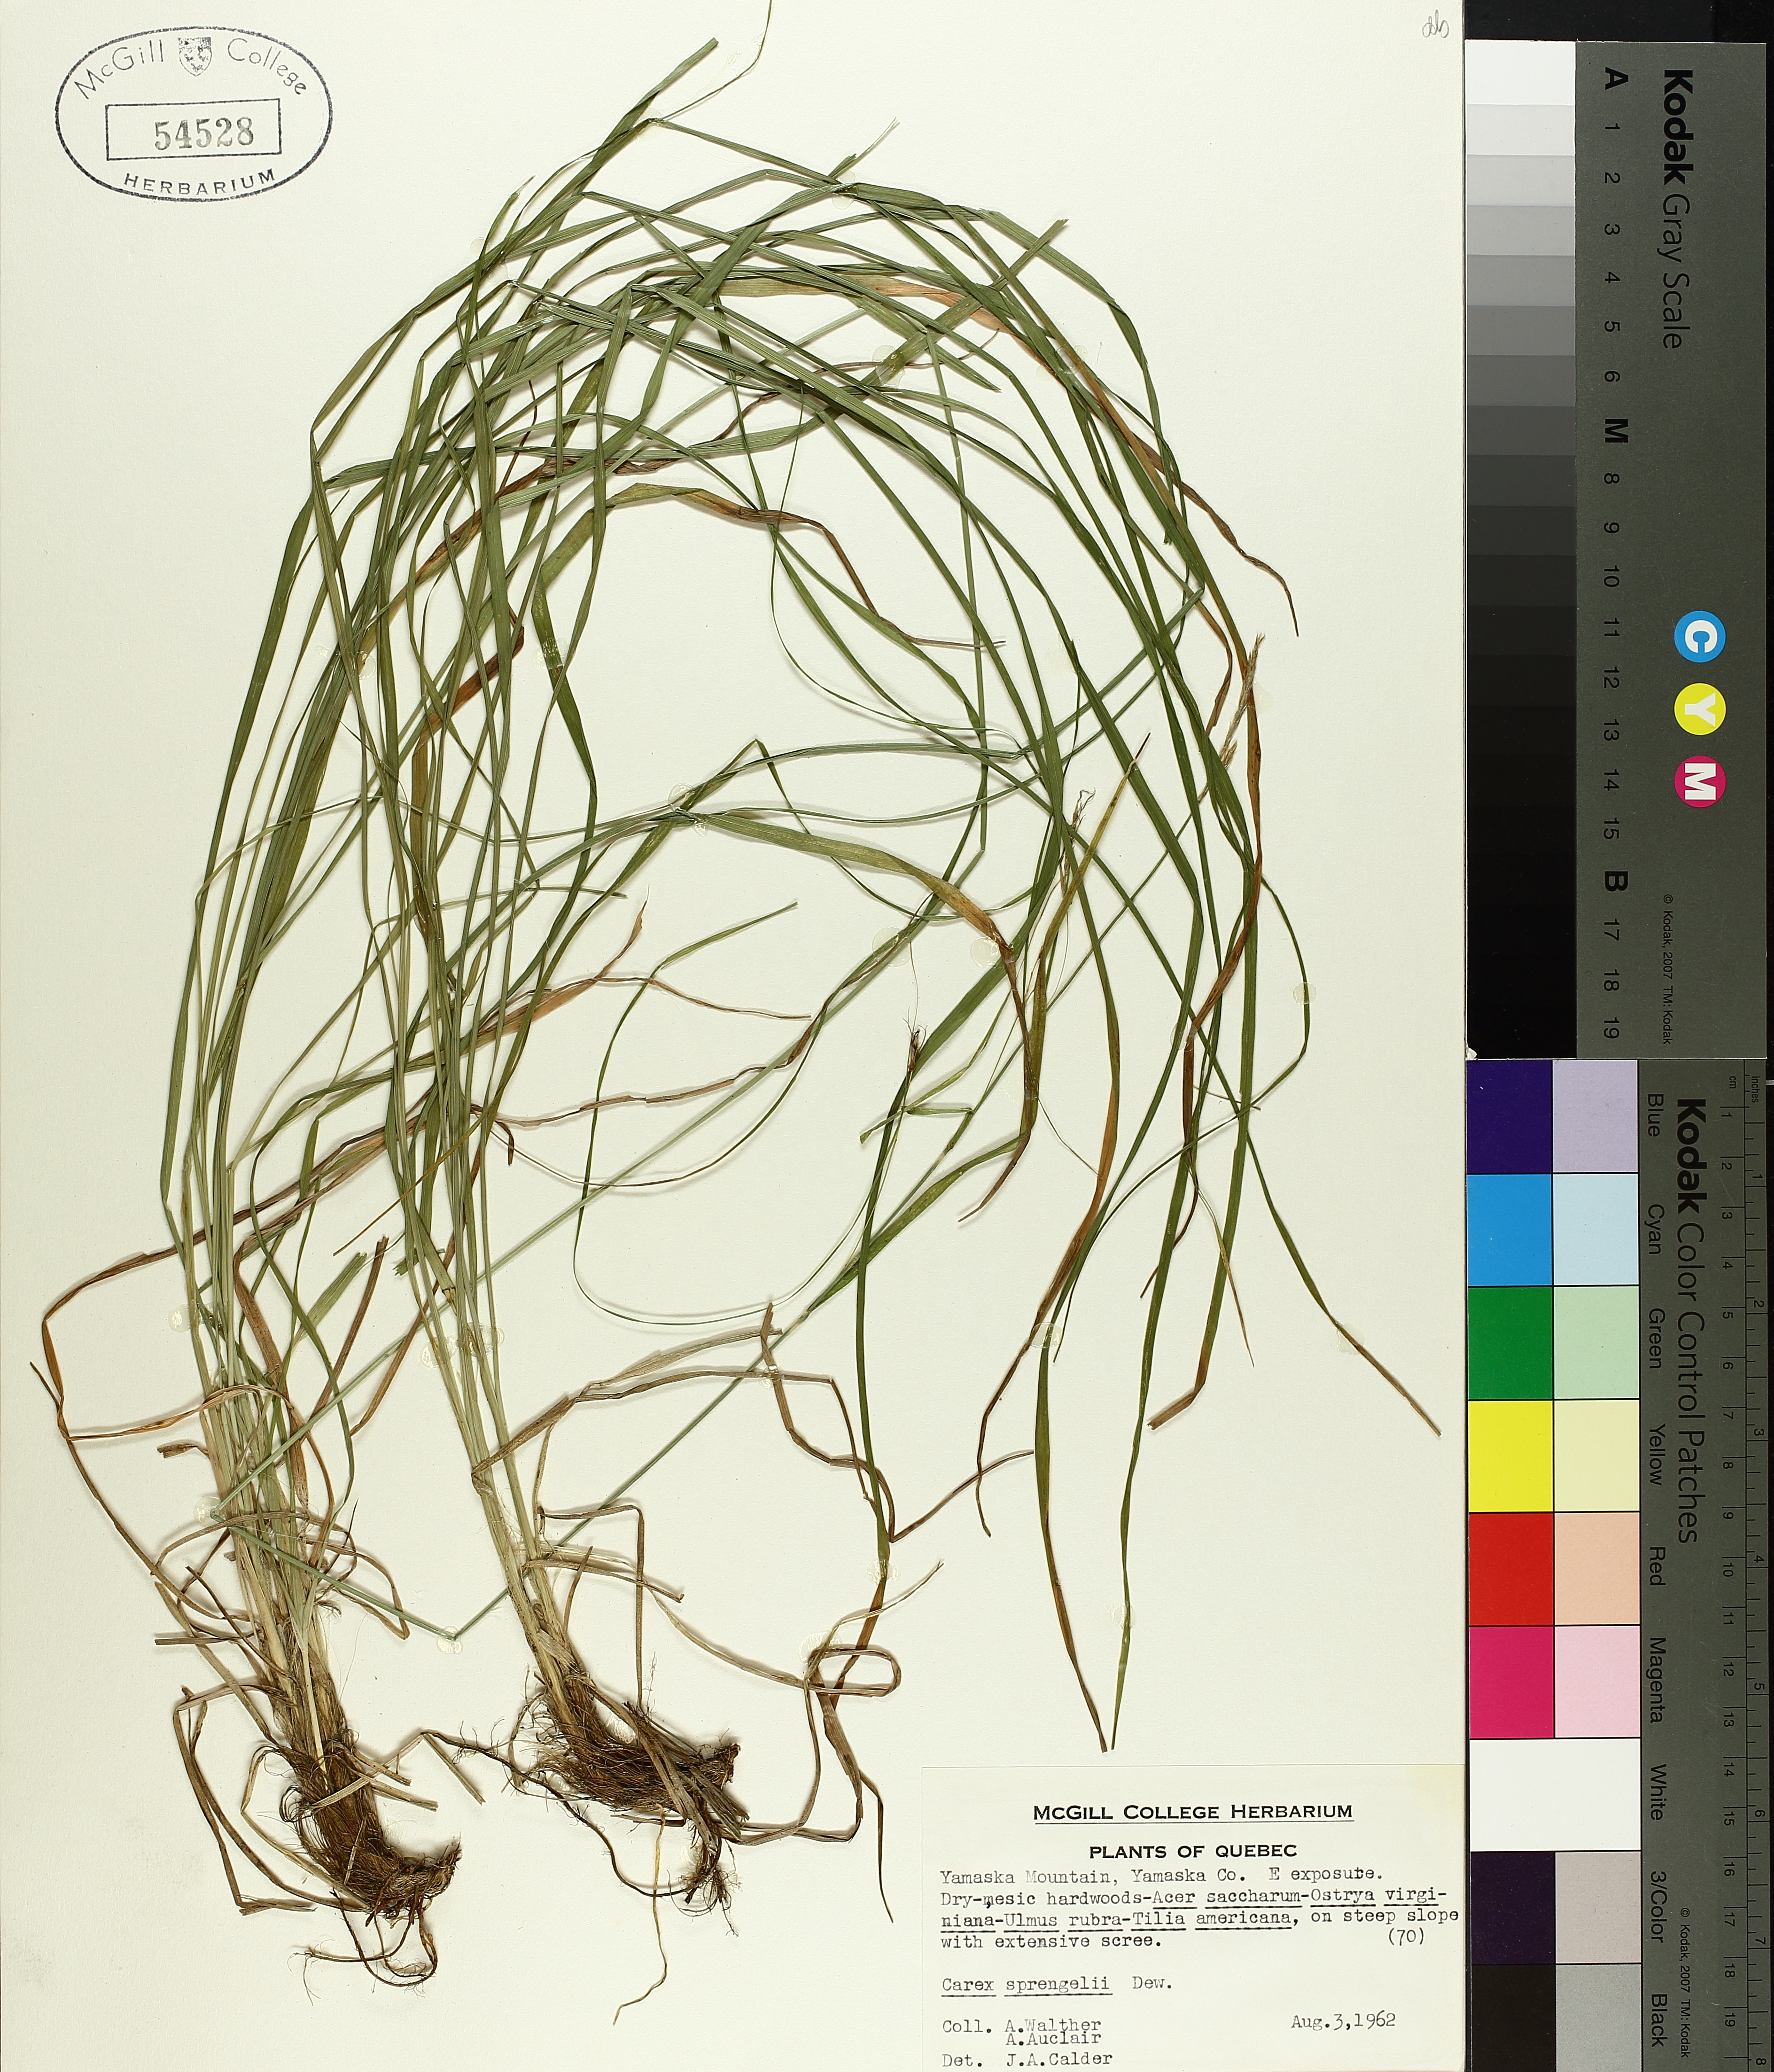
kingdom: Plantae
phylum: Tracheophyta
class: Liliopsida
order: Poales
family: Cyperaceae
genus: Carex
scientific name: Carex sprengelii
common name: Long-beaked sedge
